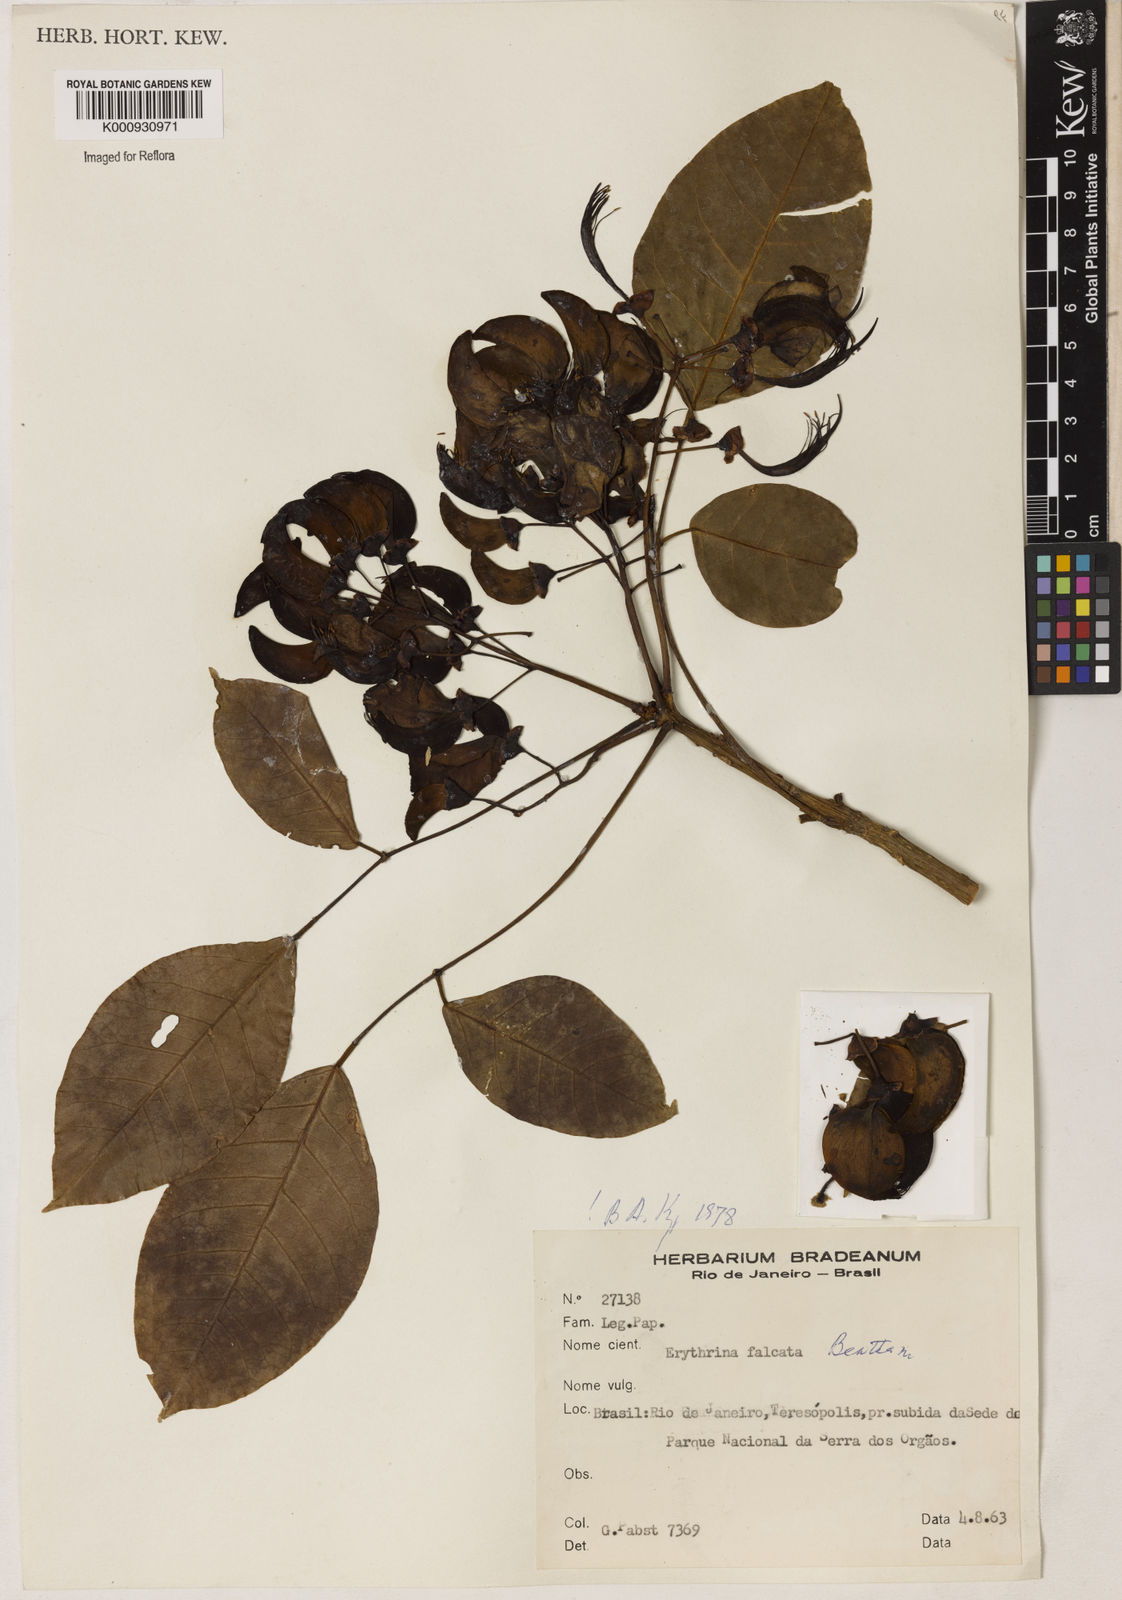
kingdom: Plantae
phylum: Tracheophyta
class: Magnoliopsida
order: Fabales
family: Fabaceae
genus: Erythrina
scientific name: Erythrina falcata
